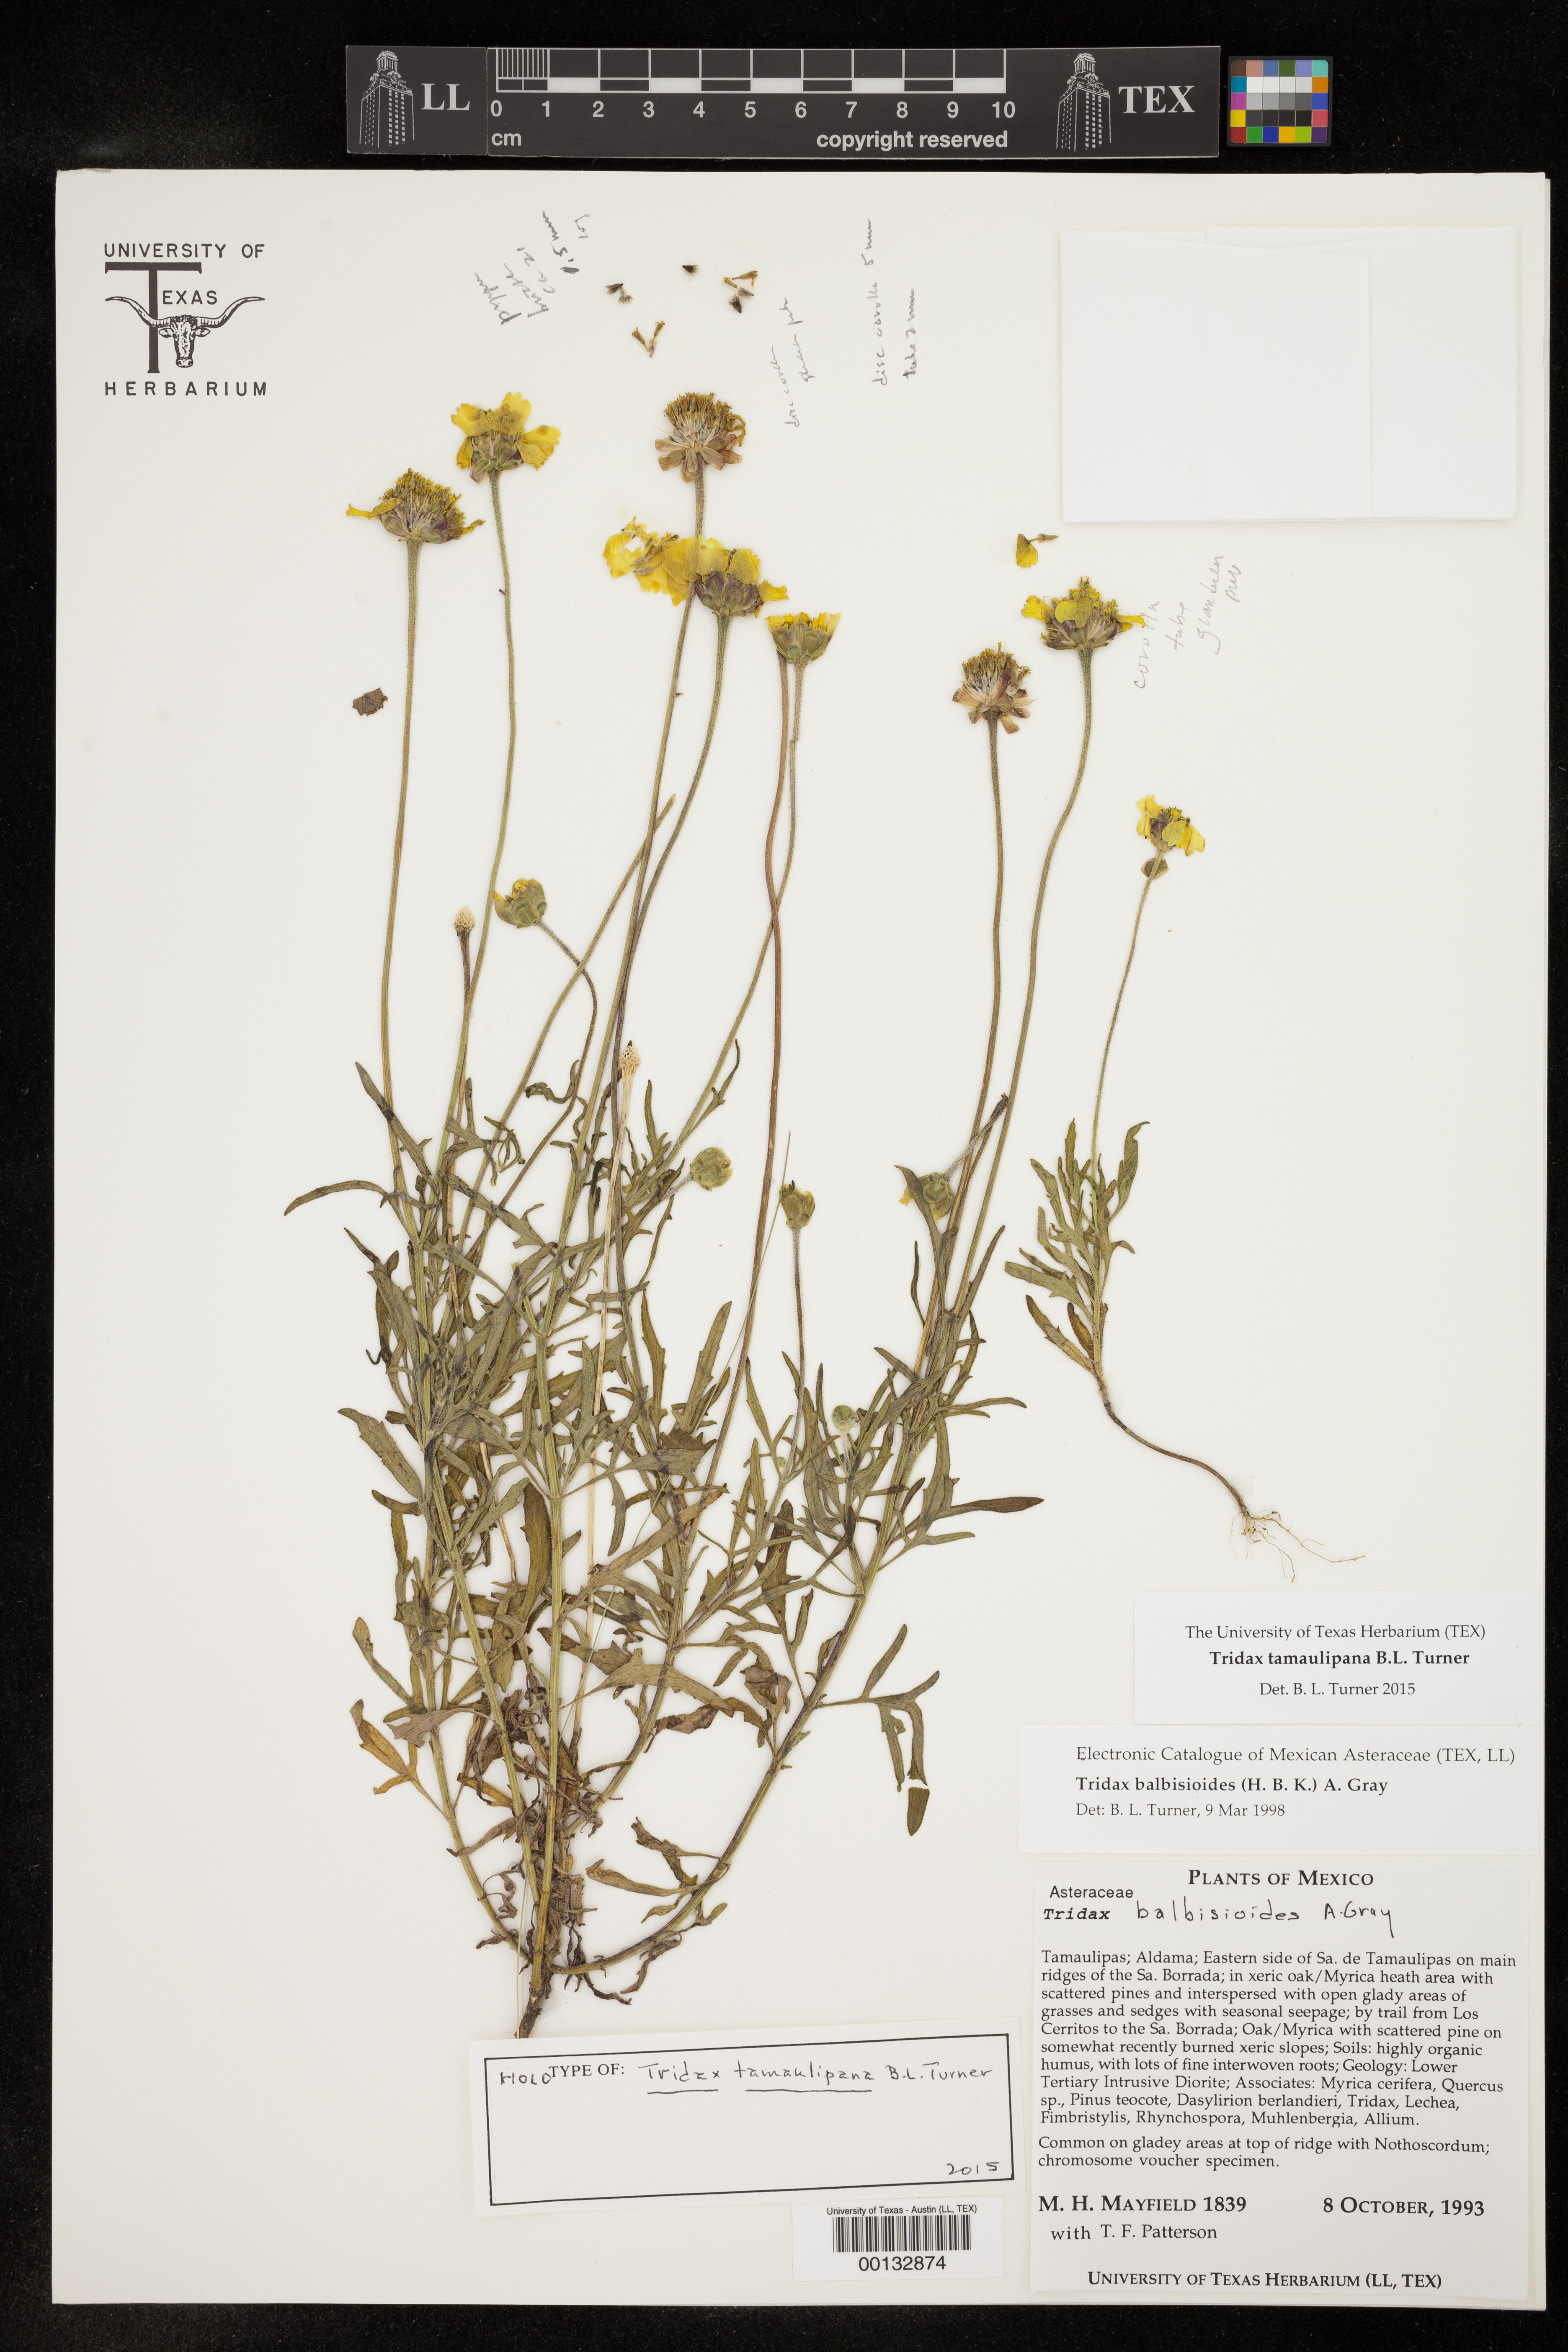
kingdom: Plantae
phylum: Tracheophyta
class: Magnoliopsida
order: Asterales
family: Asteraceae
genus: Tridax
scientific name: Tridax balbisioides
